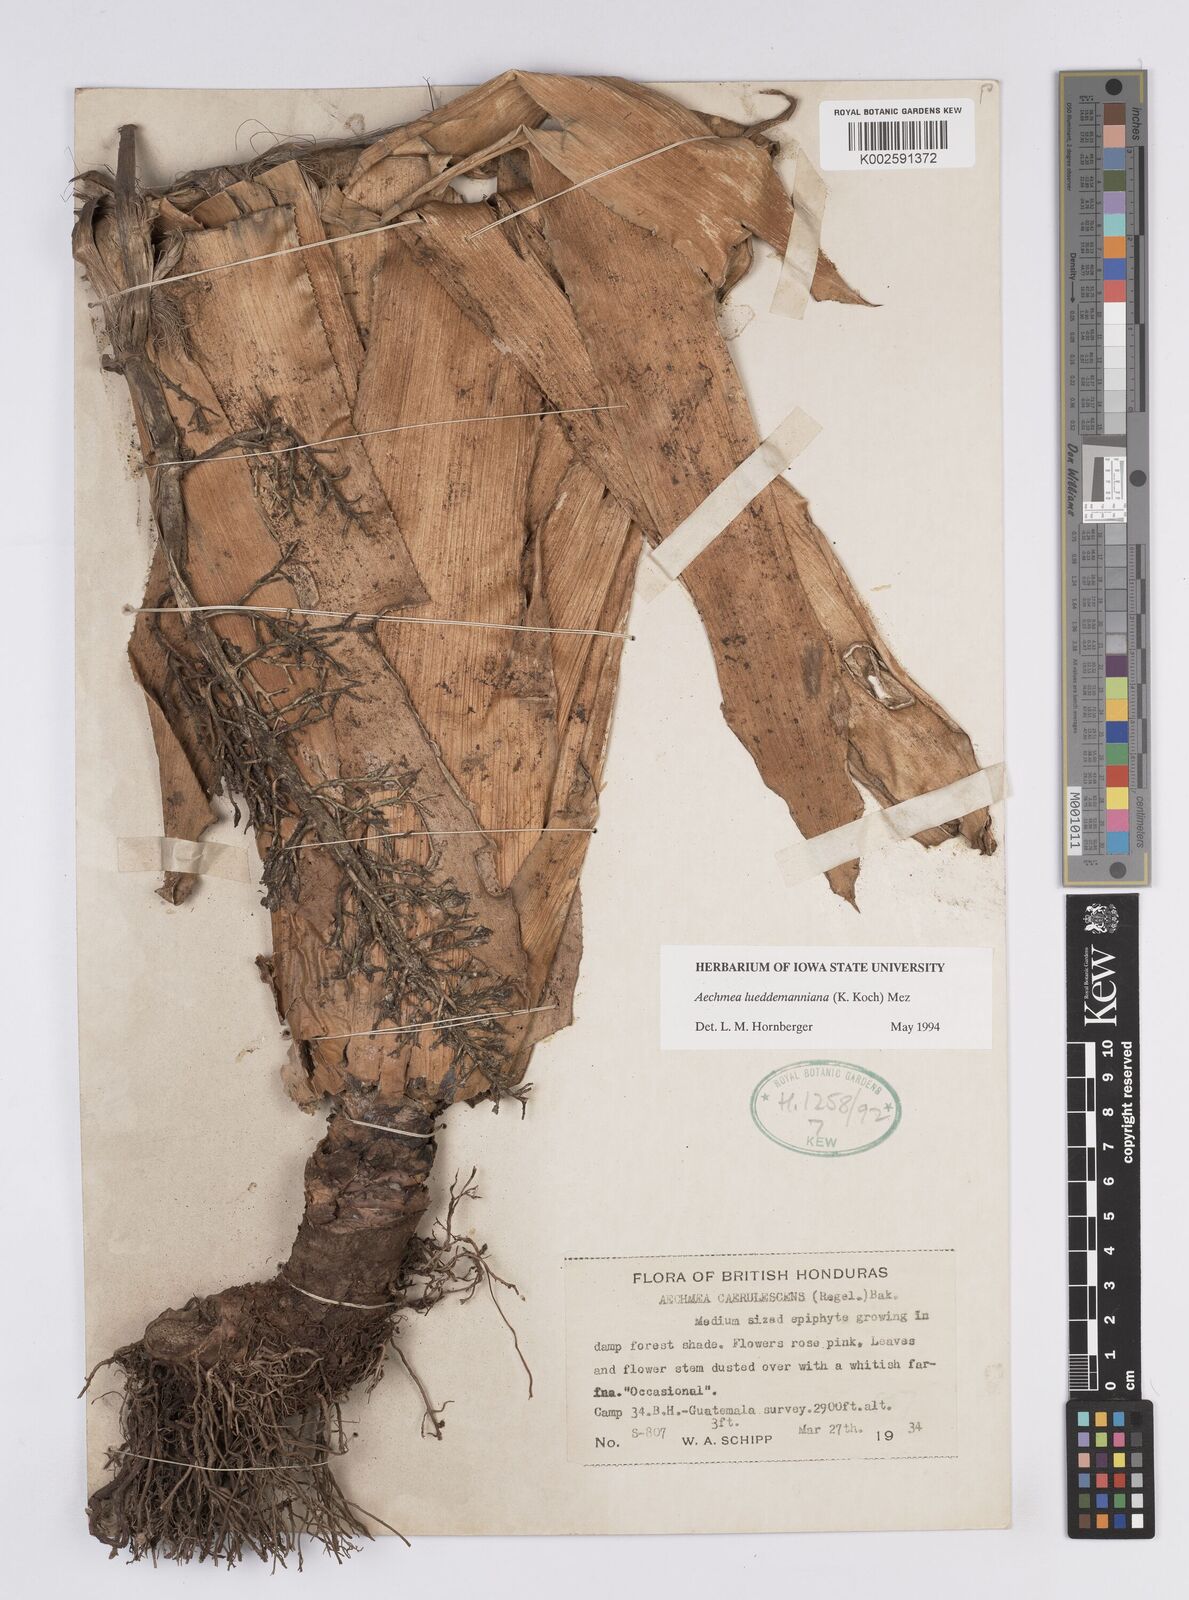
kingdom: Plantae
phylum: Tracheophyta
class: Liliopsida
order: Poales
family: Bromeliaceae
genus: Aechmea
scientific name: Aechmea lueddemanniana
